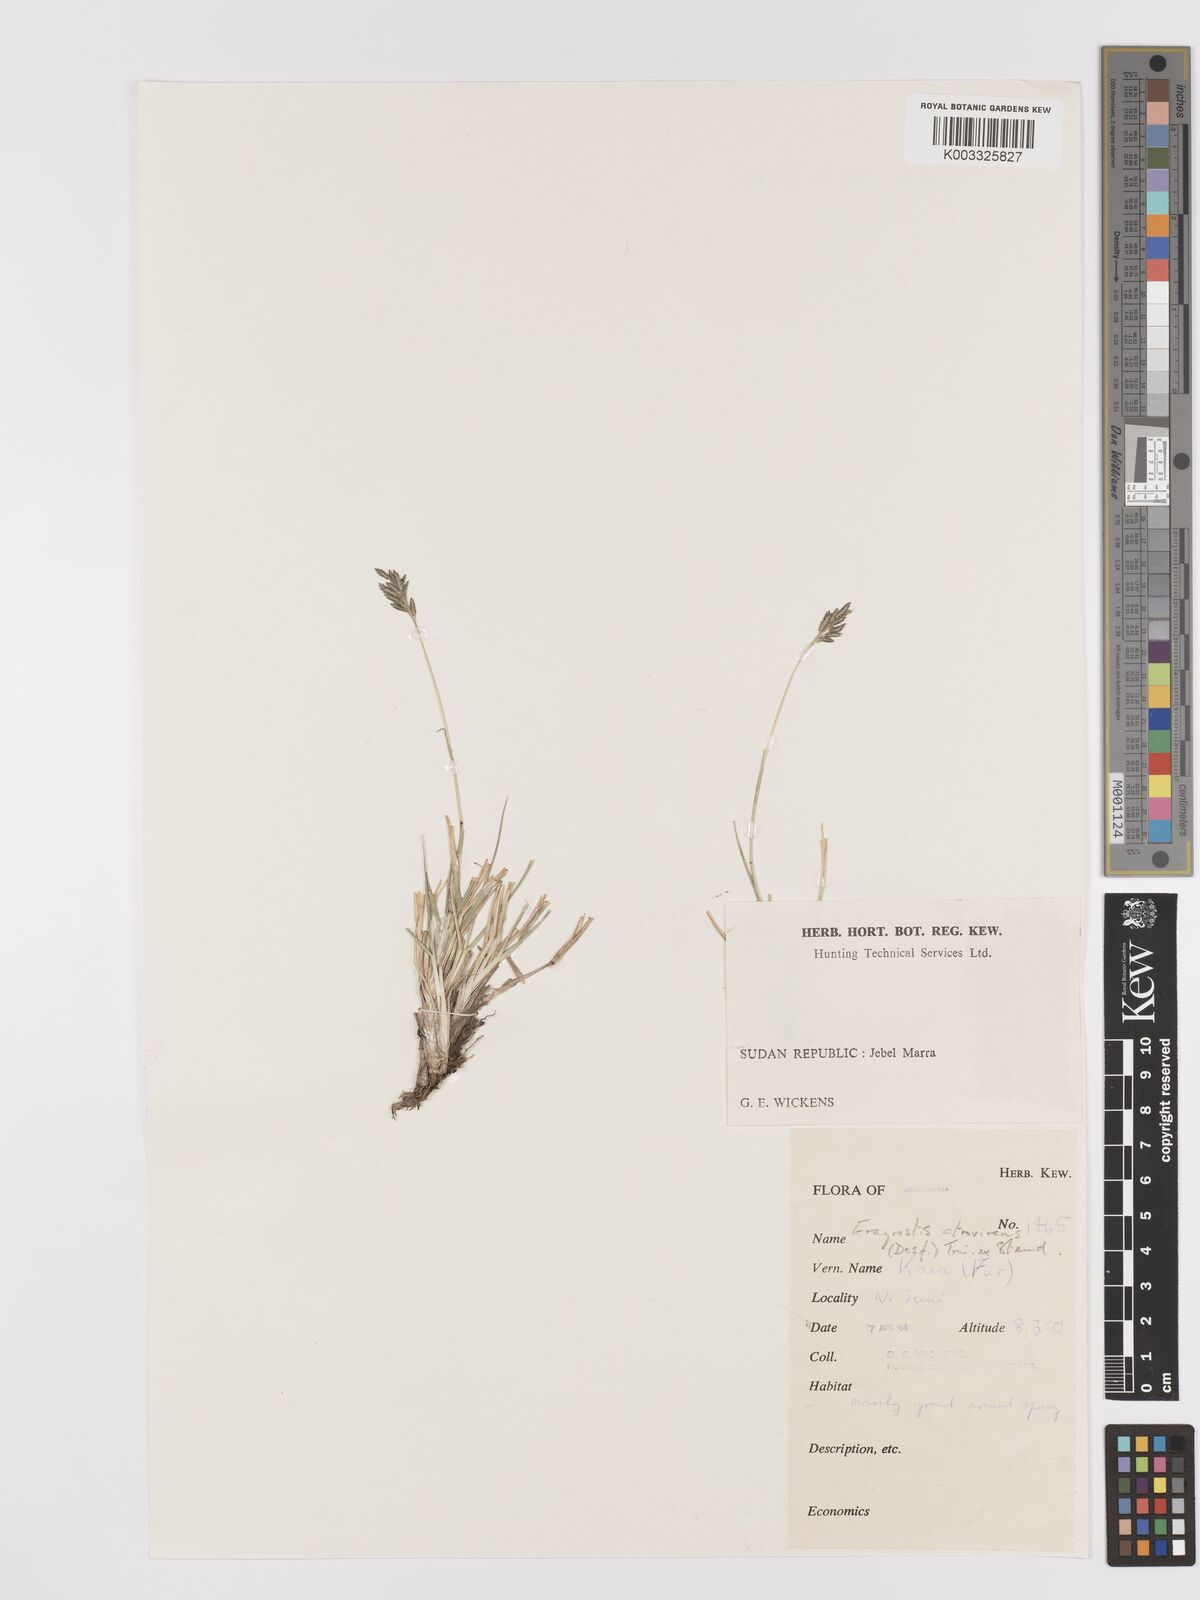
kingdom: Plantae
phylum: Tracheophyta
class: Liliopsida
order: Poales
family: Poaceae
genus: Eragrostis
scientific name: Eragrostis atrovirens
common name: Thalia lovegrass
